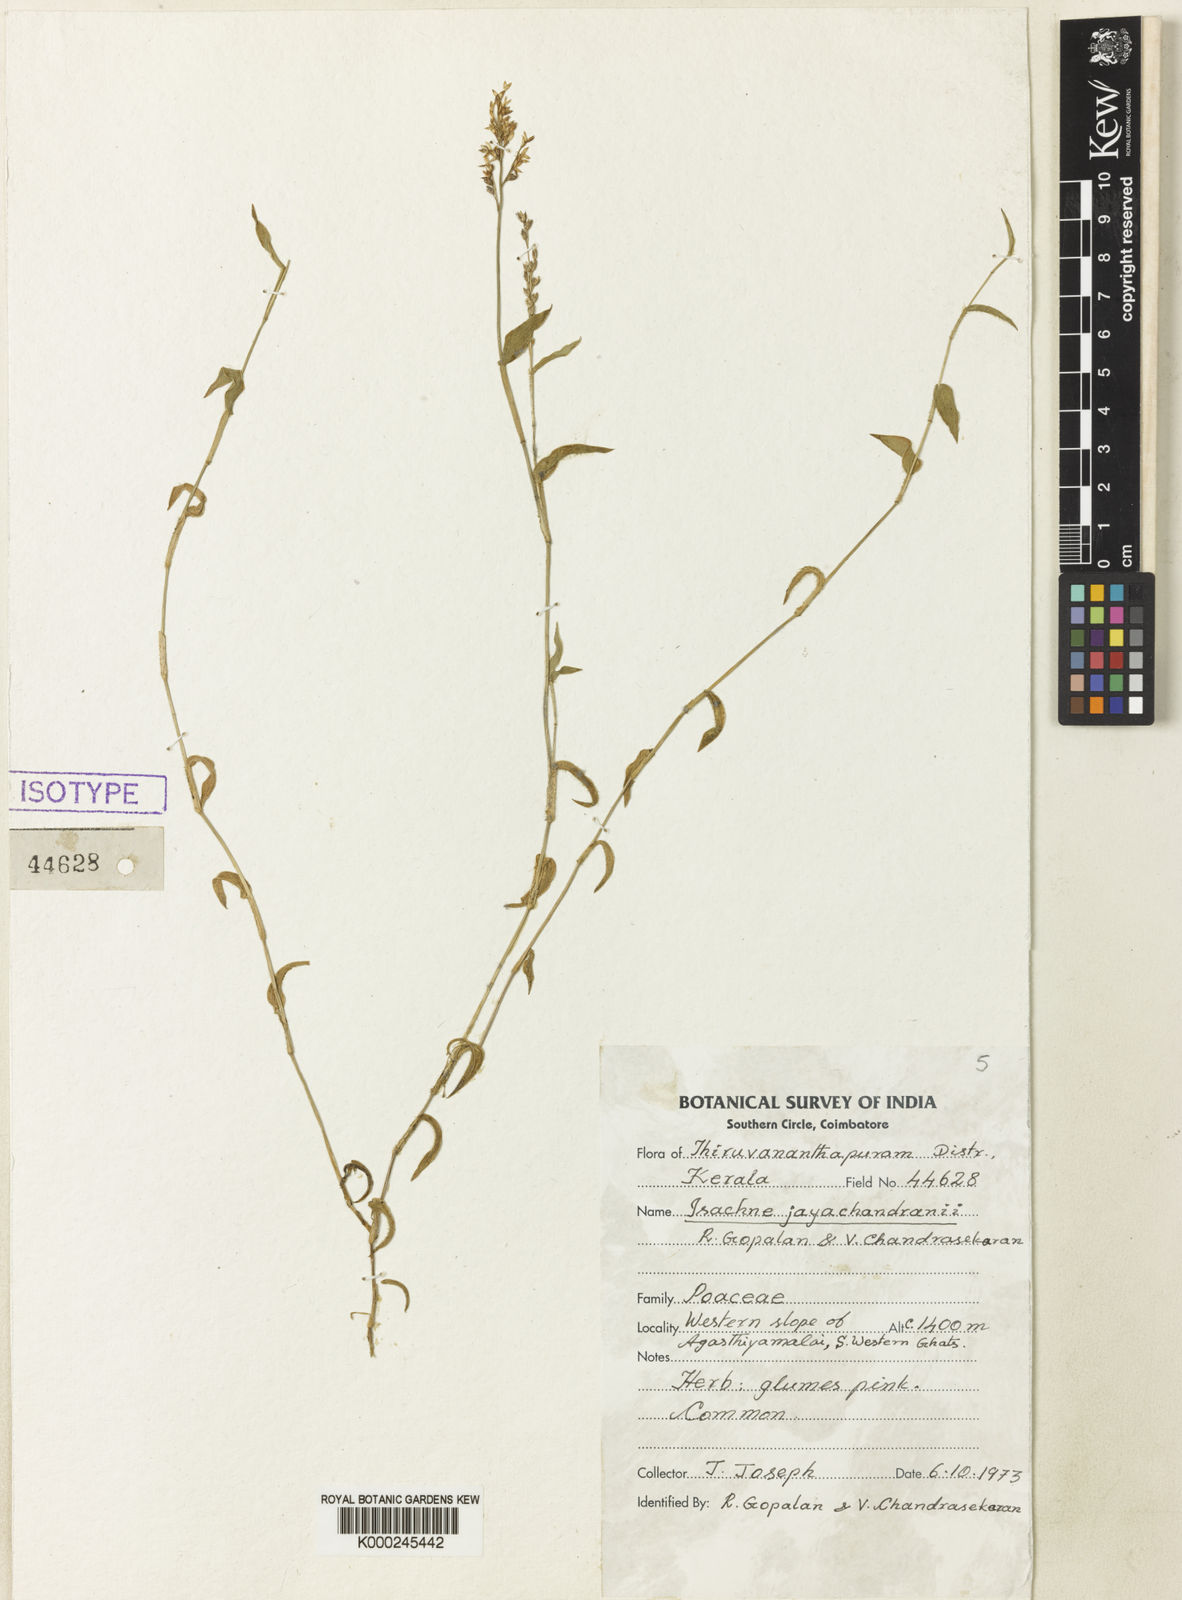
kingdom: Plantae
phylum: Tracheophyta
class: Liliopsida
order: Poales
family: Poaceae
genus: Isachne
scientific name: Isachne jayachandranii
